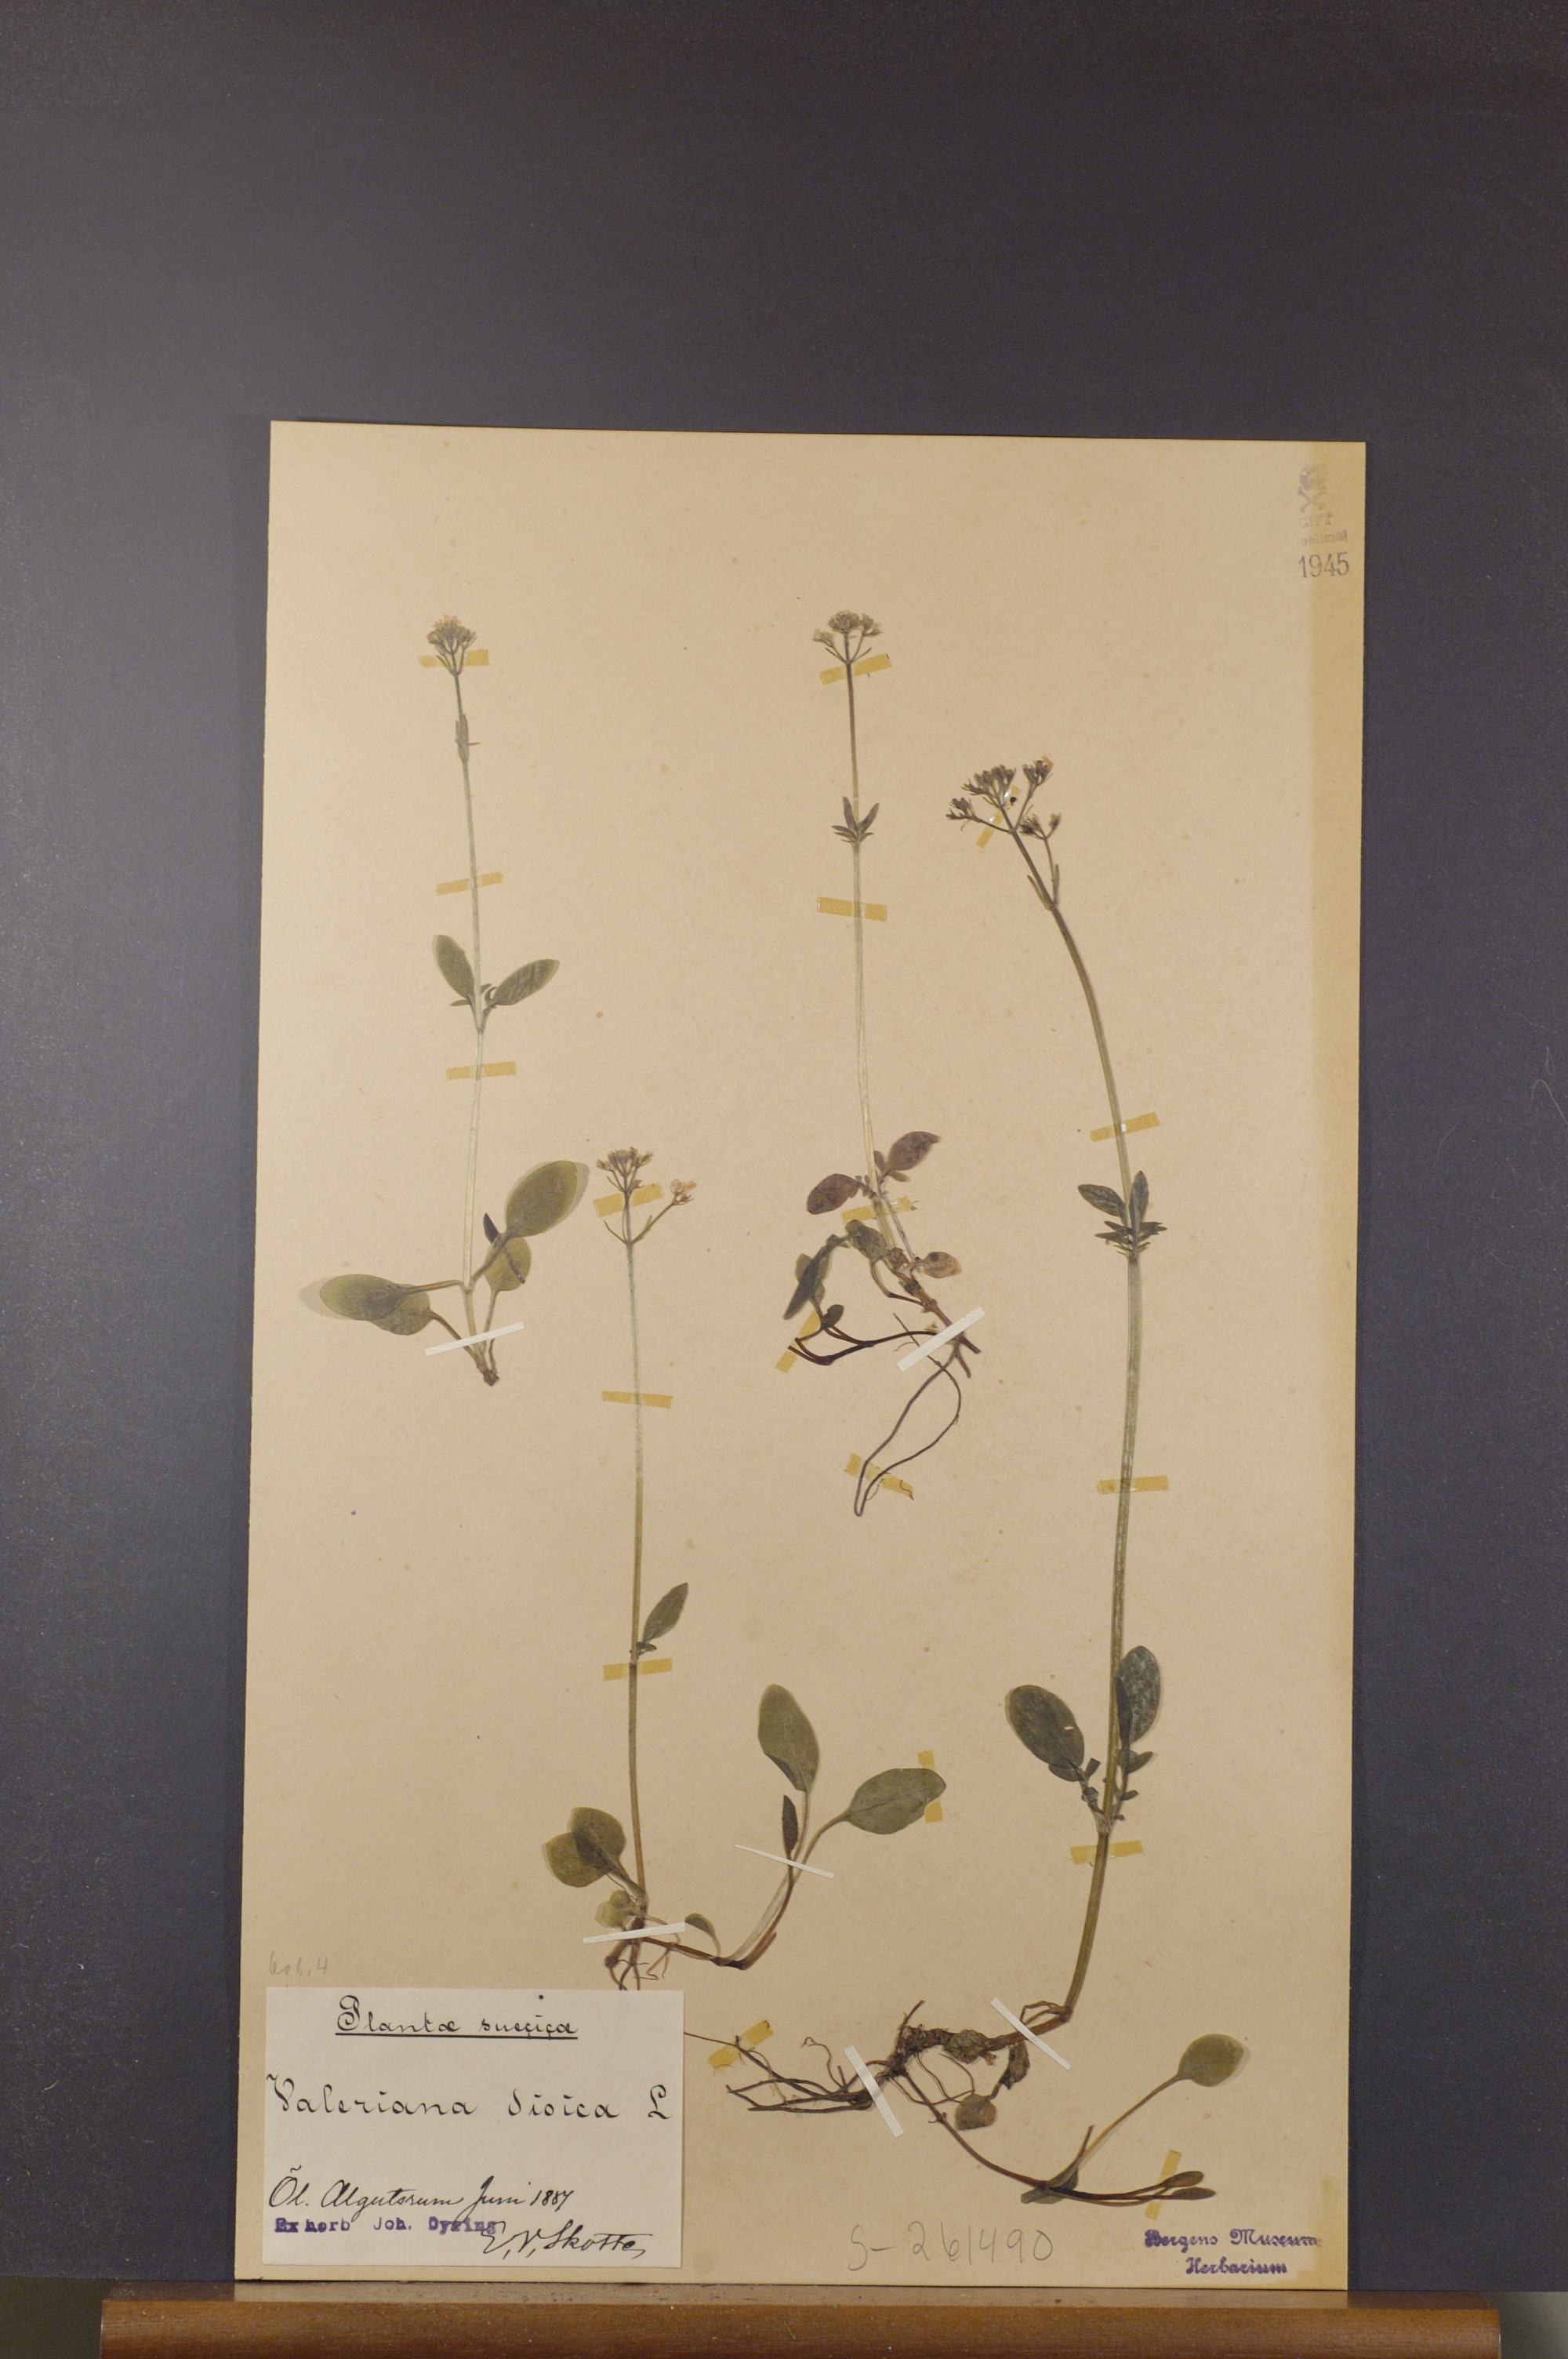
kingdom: Plantae
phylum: Tracheophyta
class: Magnoliopsida
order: Dipsacales
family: Caprifoliaceae
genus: Valeriana
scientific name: Valeriana dioica
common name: Marsh valerian
